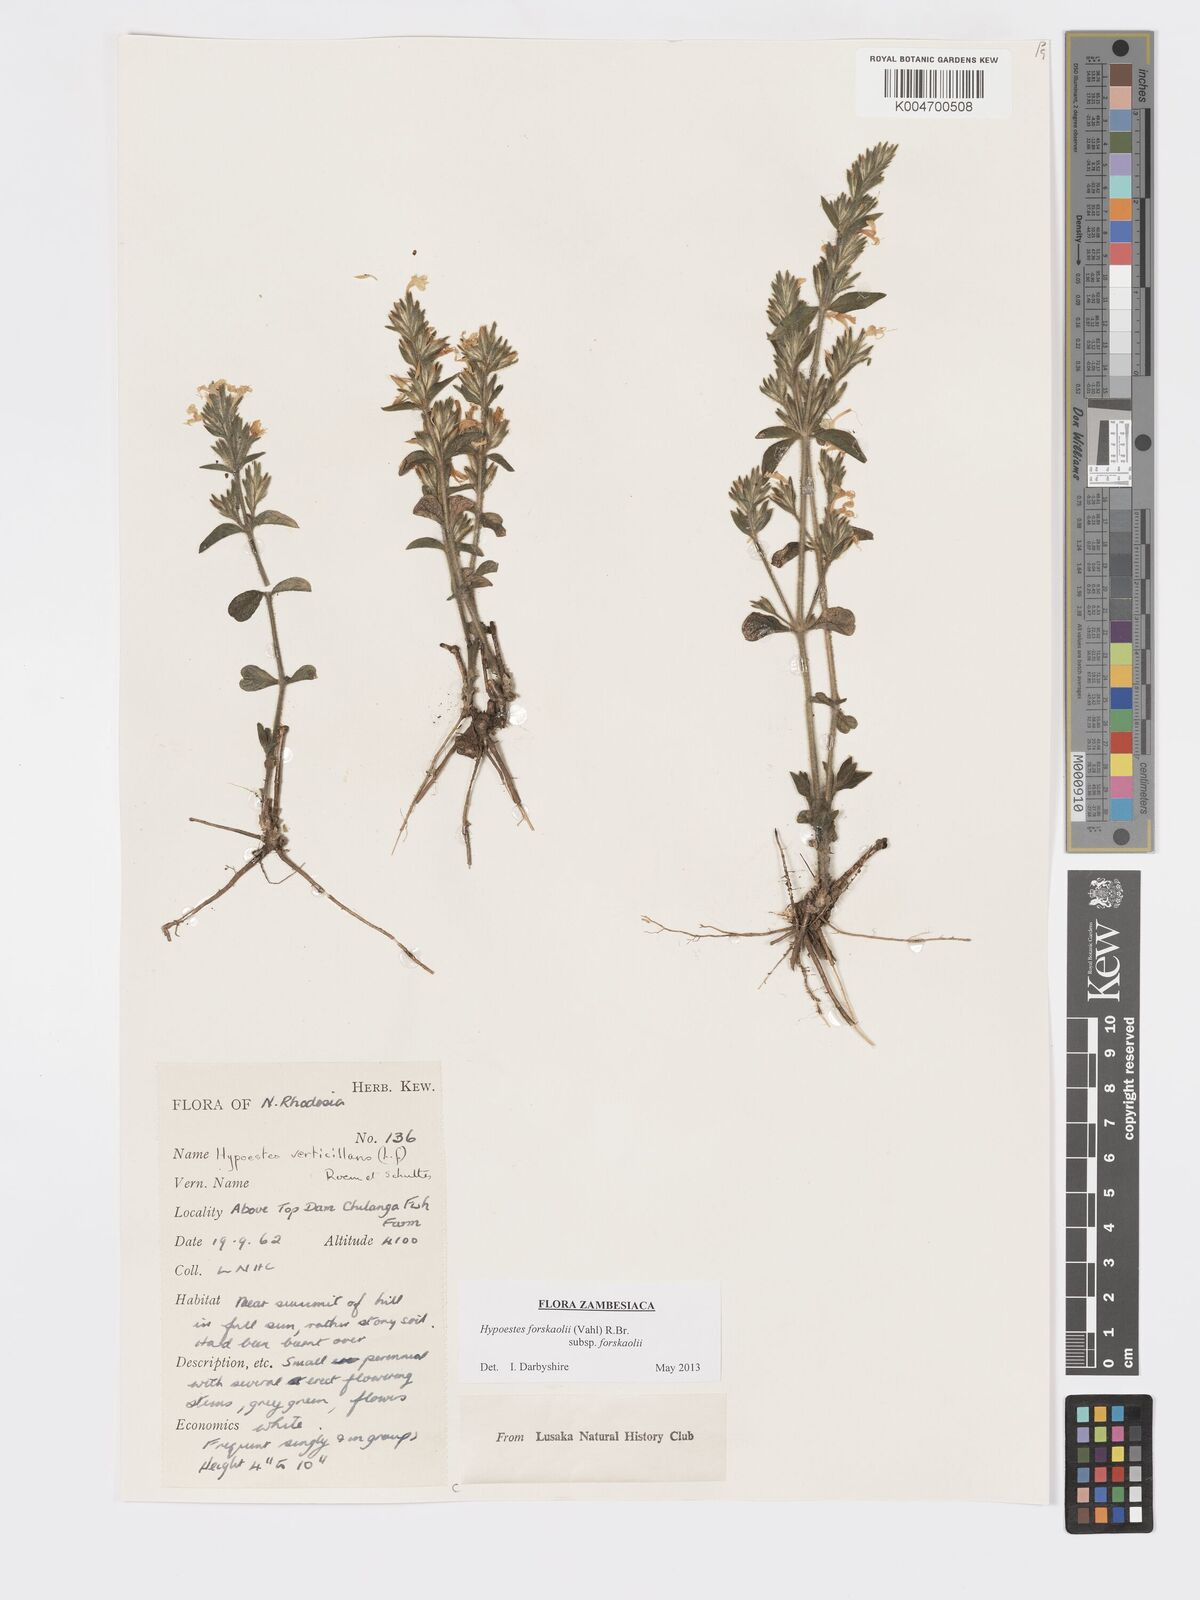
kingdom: Plantae
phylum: Tracheophyta
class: Magnoliopsida
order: Lamiales
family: Acanthaceae
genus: Hypoestes
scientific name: Hypoestes forskaolii
